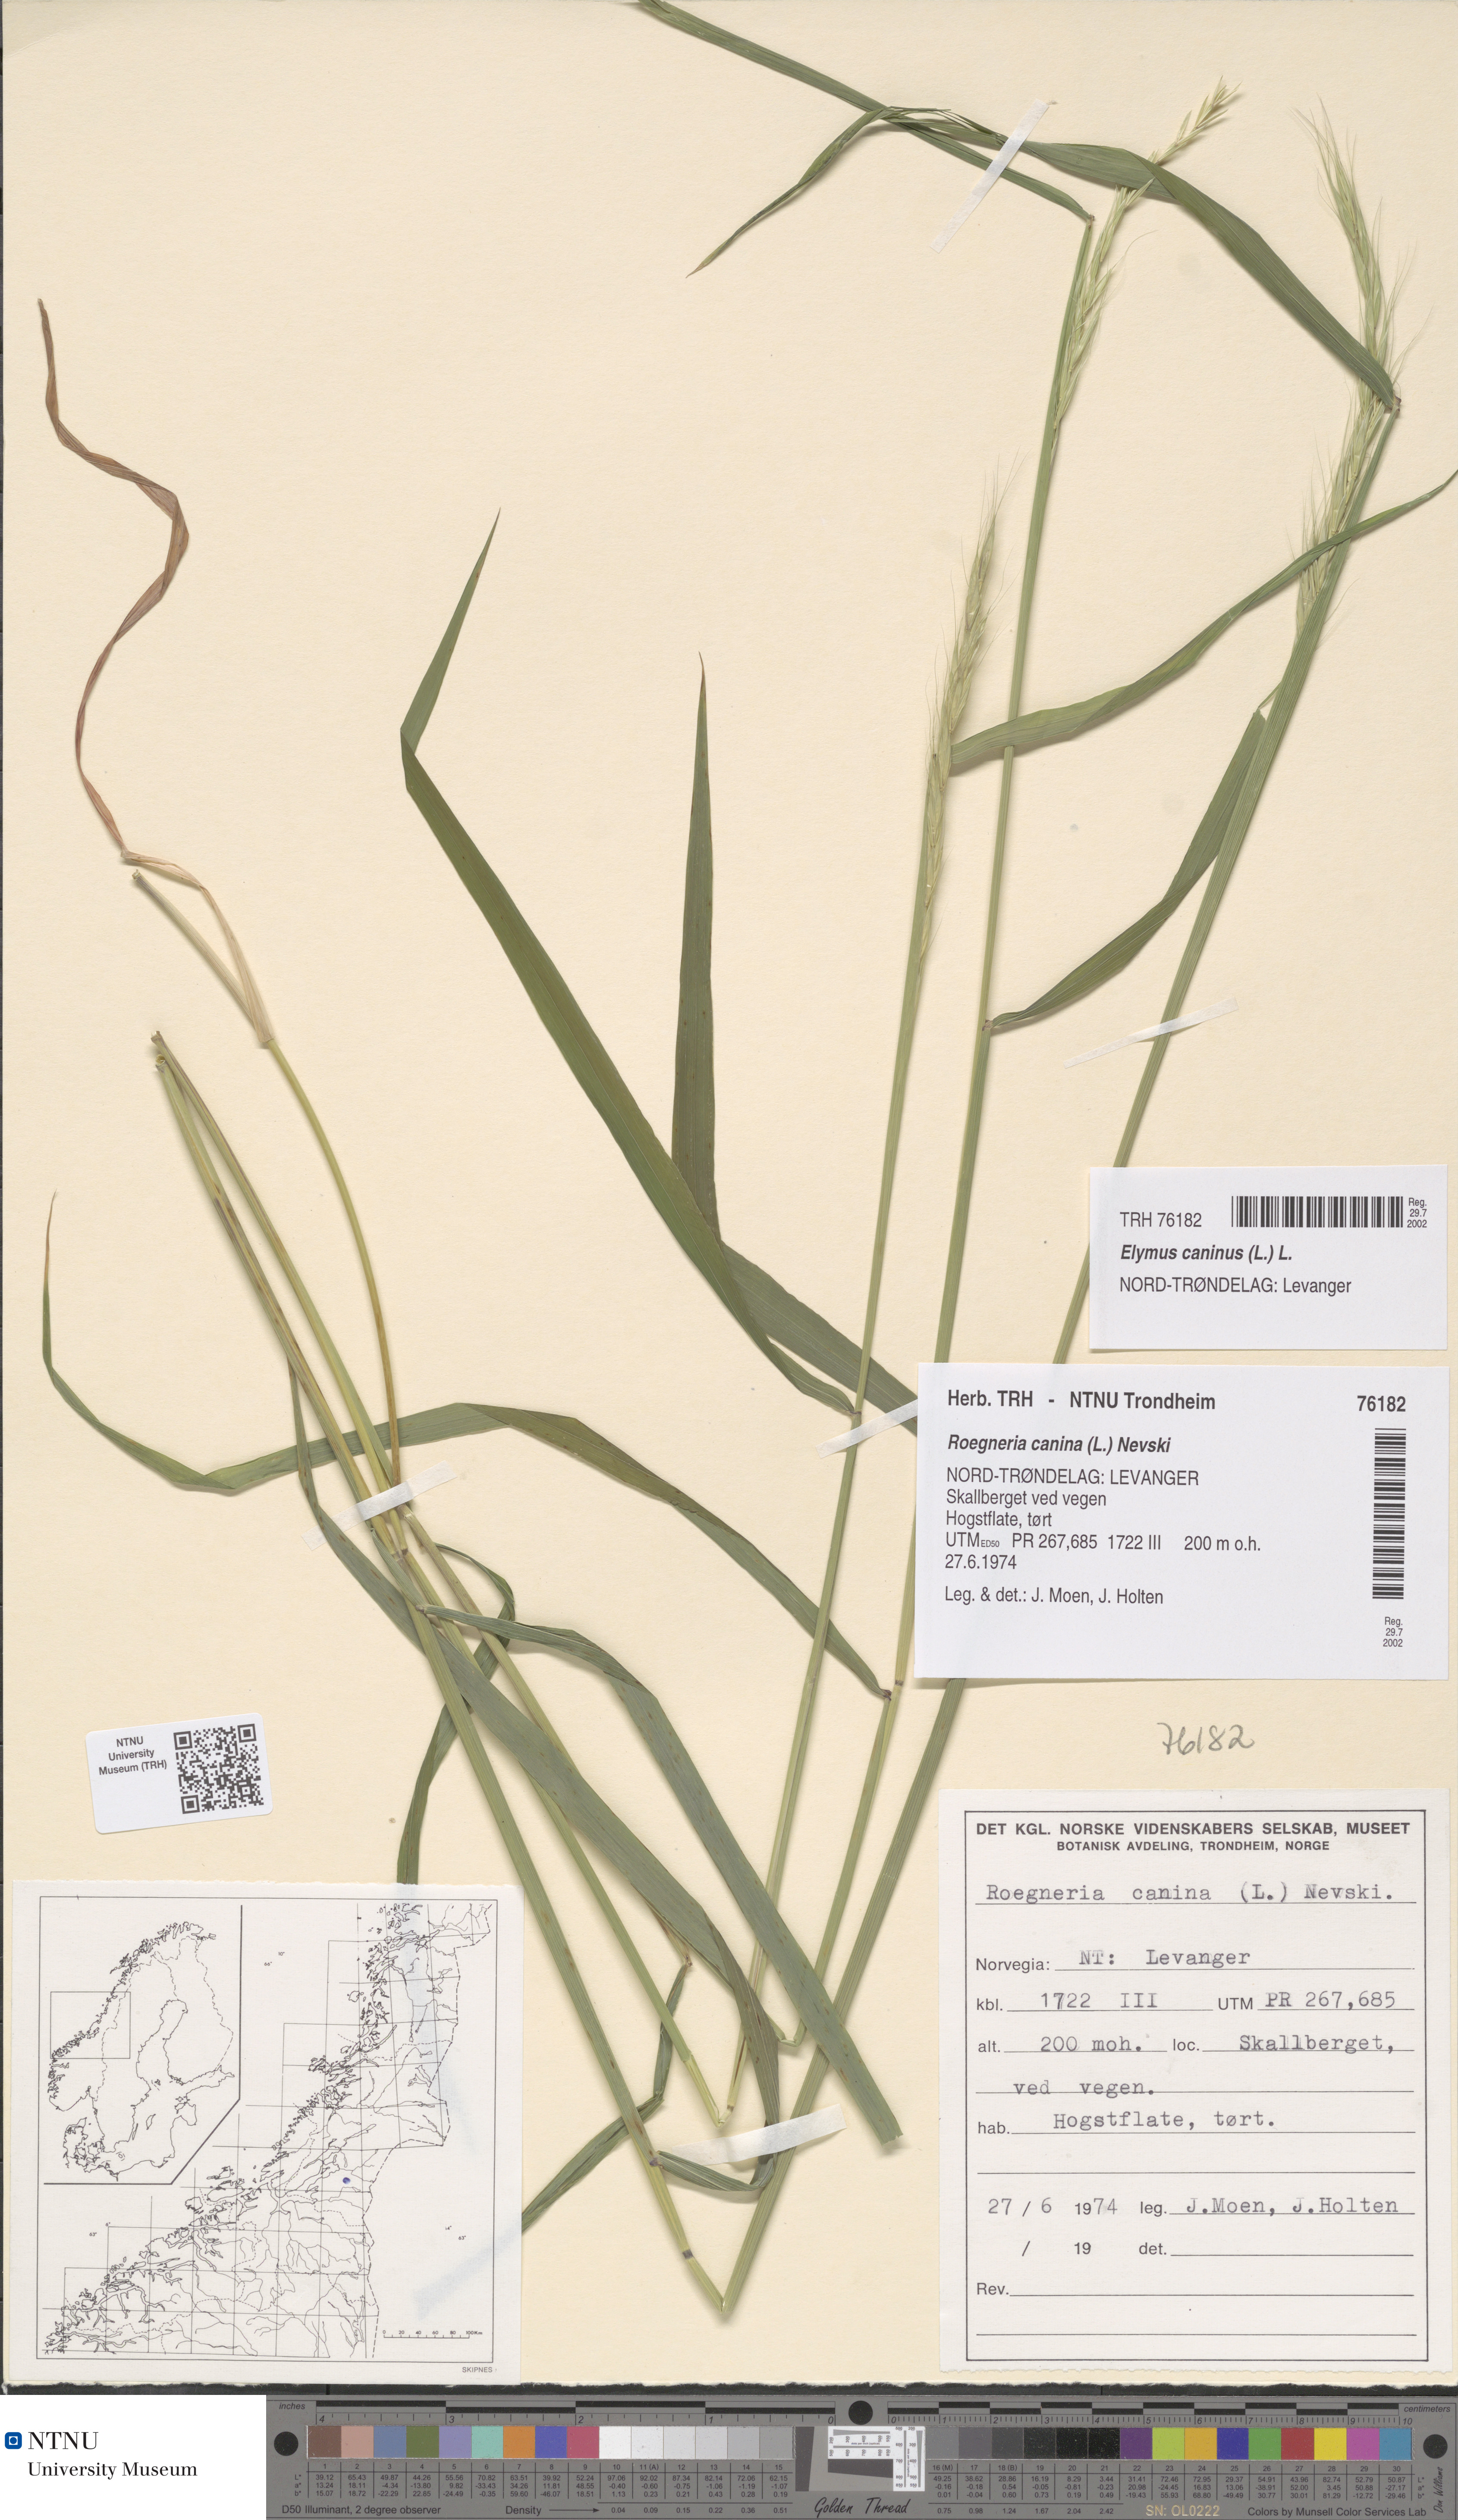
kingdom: Plantae
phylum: Tracheophyta
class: Liliopsida
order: Poales
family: Poaceae
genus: Elymus
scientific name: Elymus caninus
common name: Bearded couch
